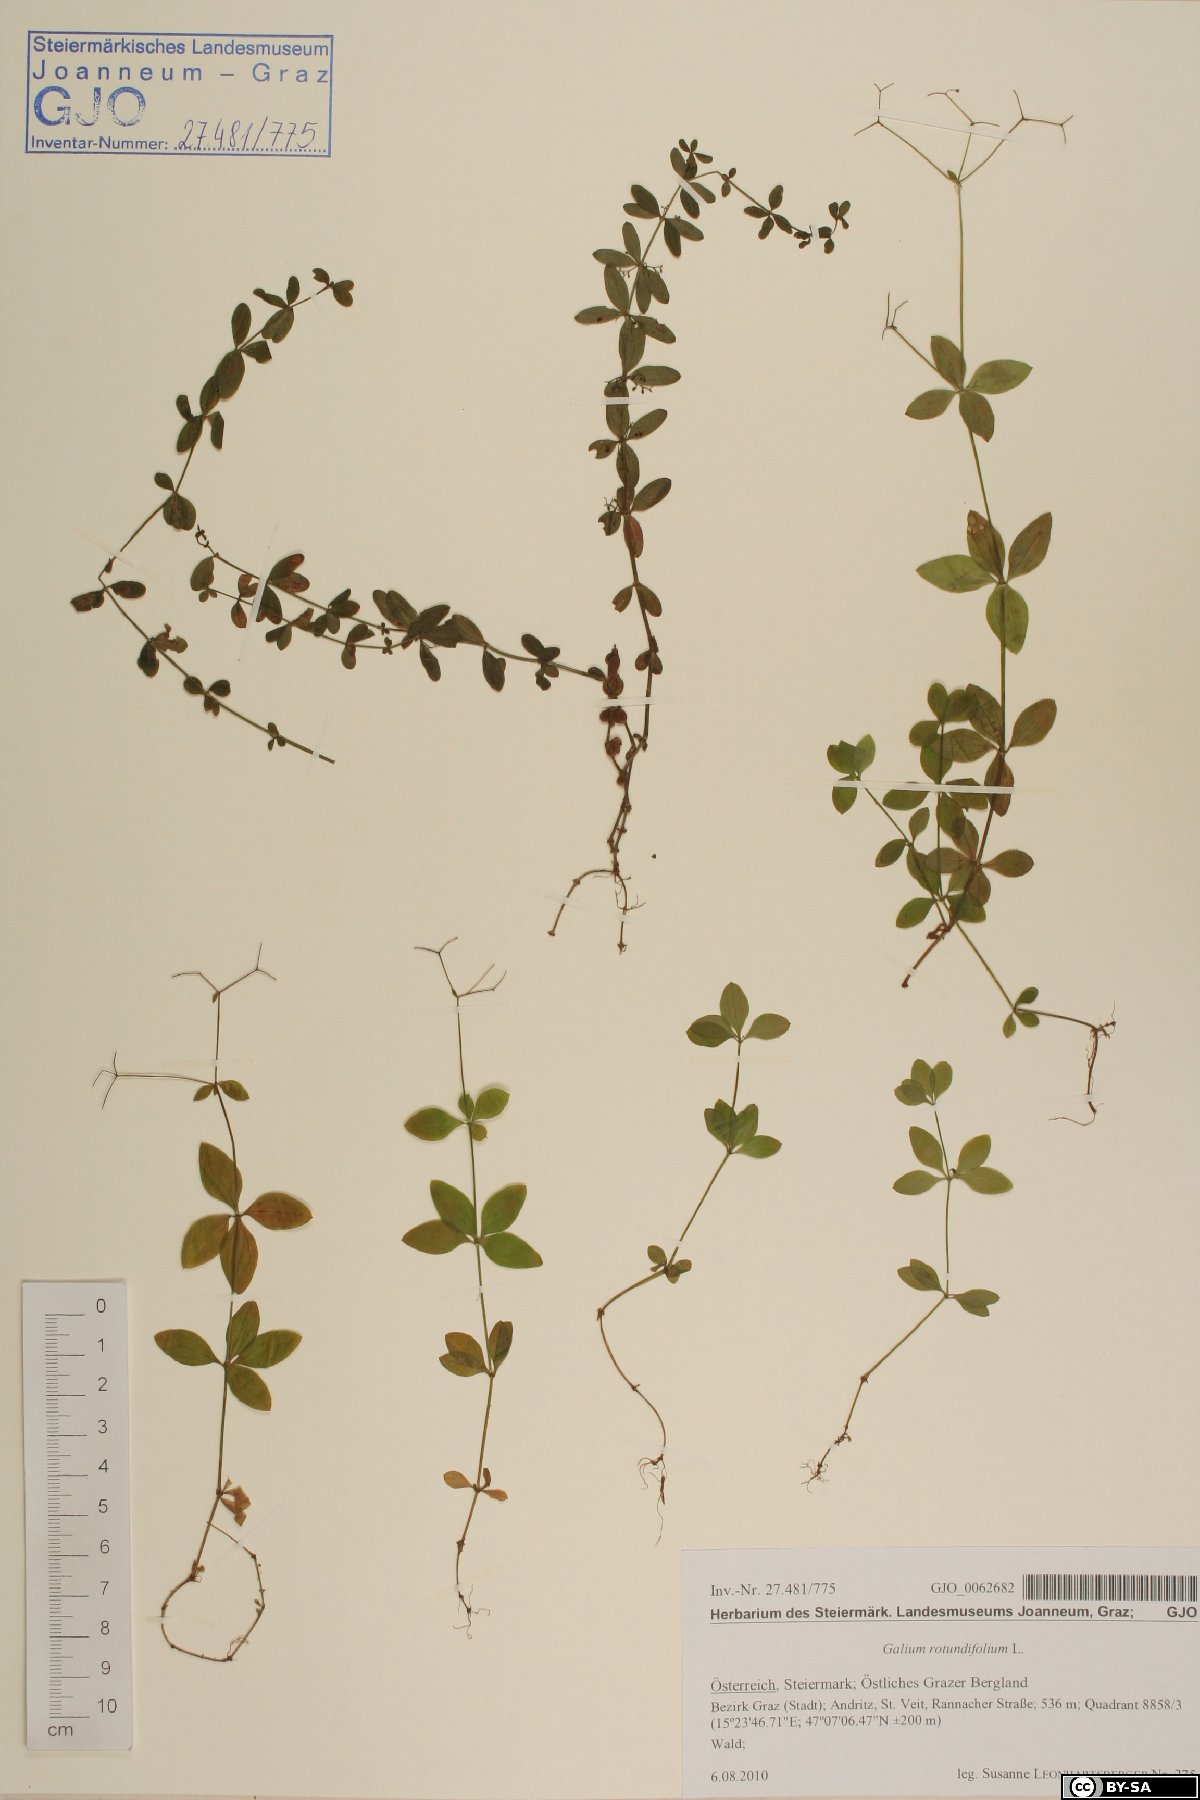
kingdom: Plantae
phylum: Tracheophyta
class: Magnoliopsida
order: Gentianales
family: Rubiaceae
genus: Galium
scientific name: Galium rotundifolium
